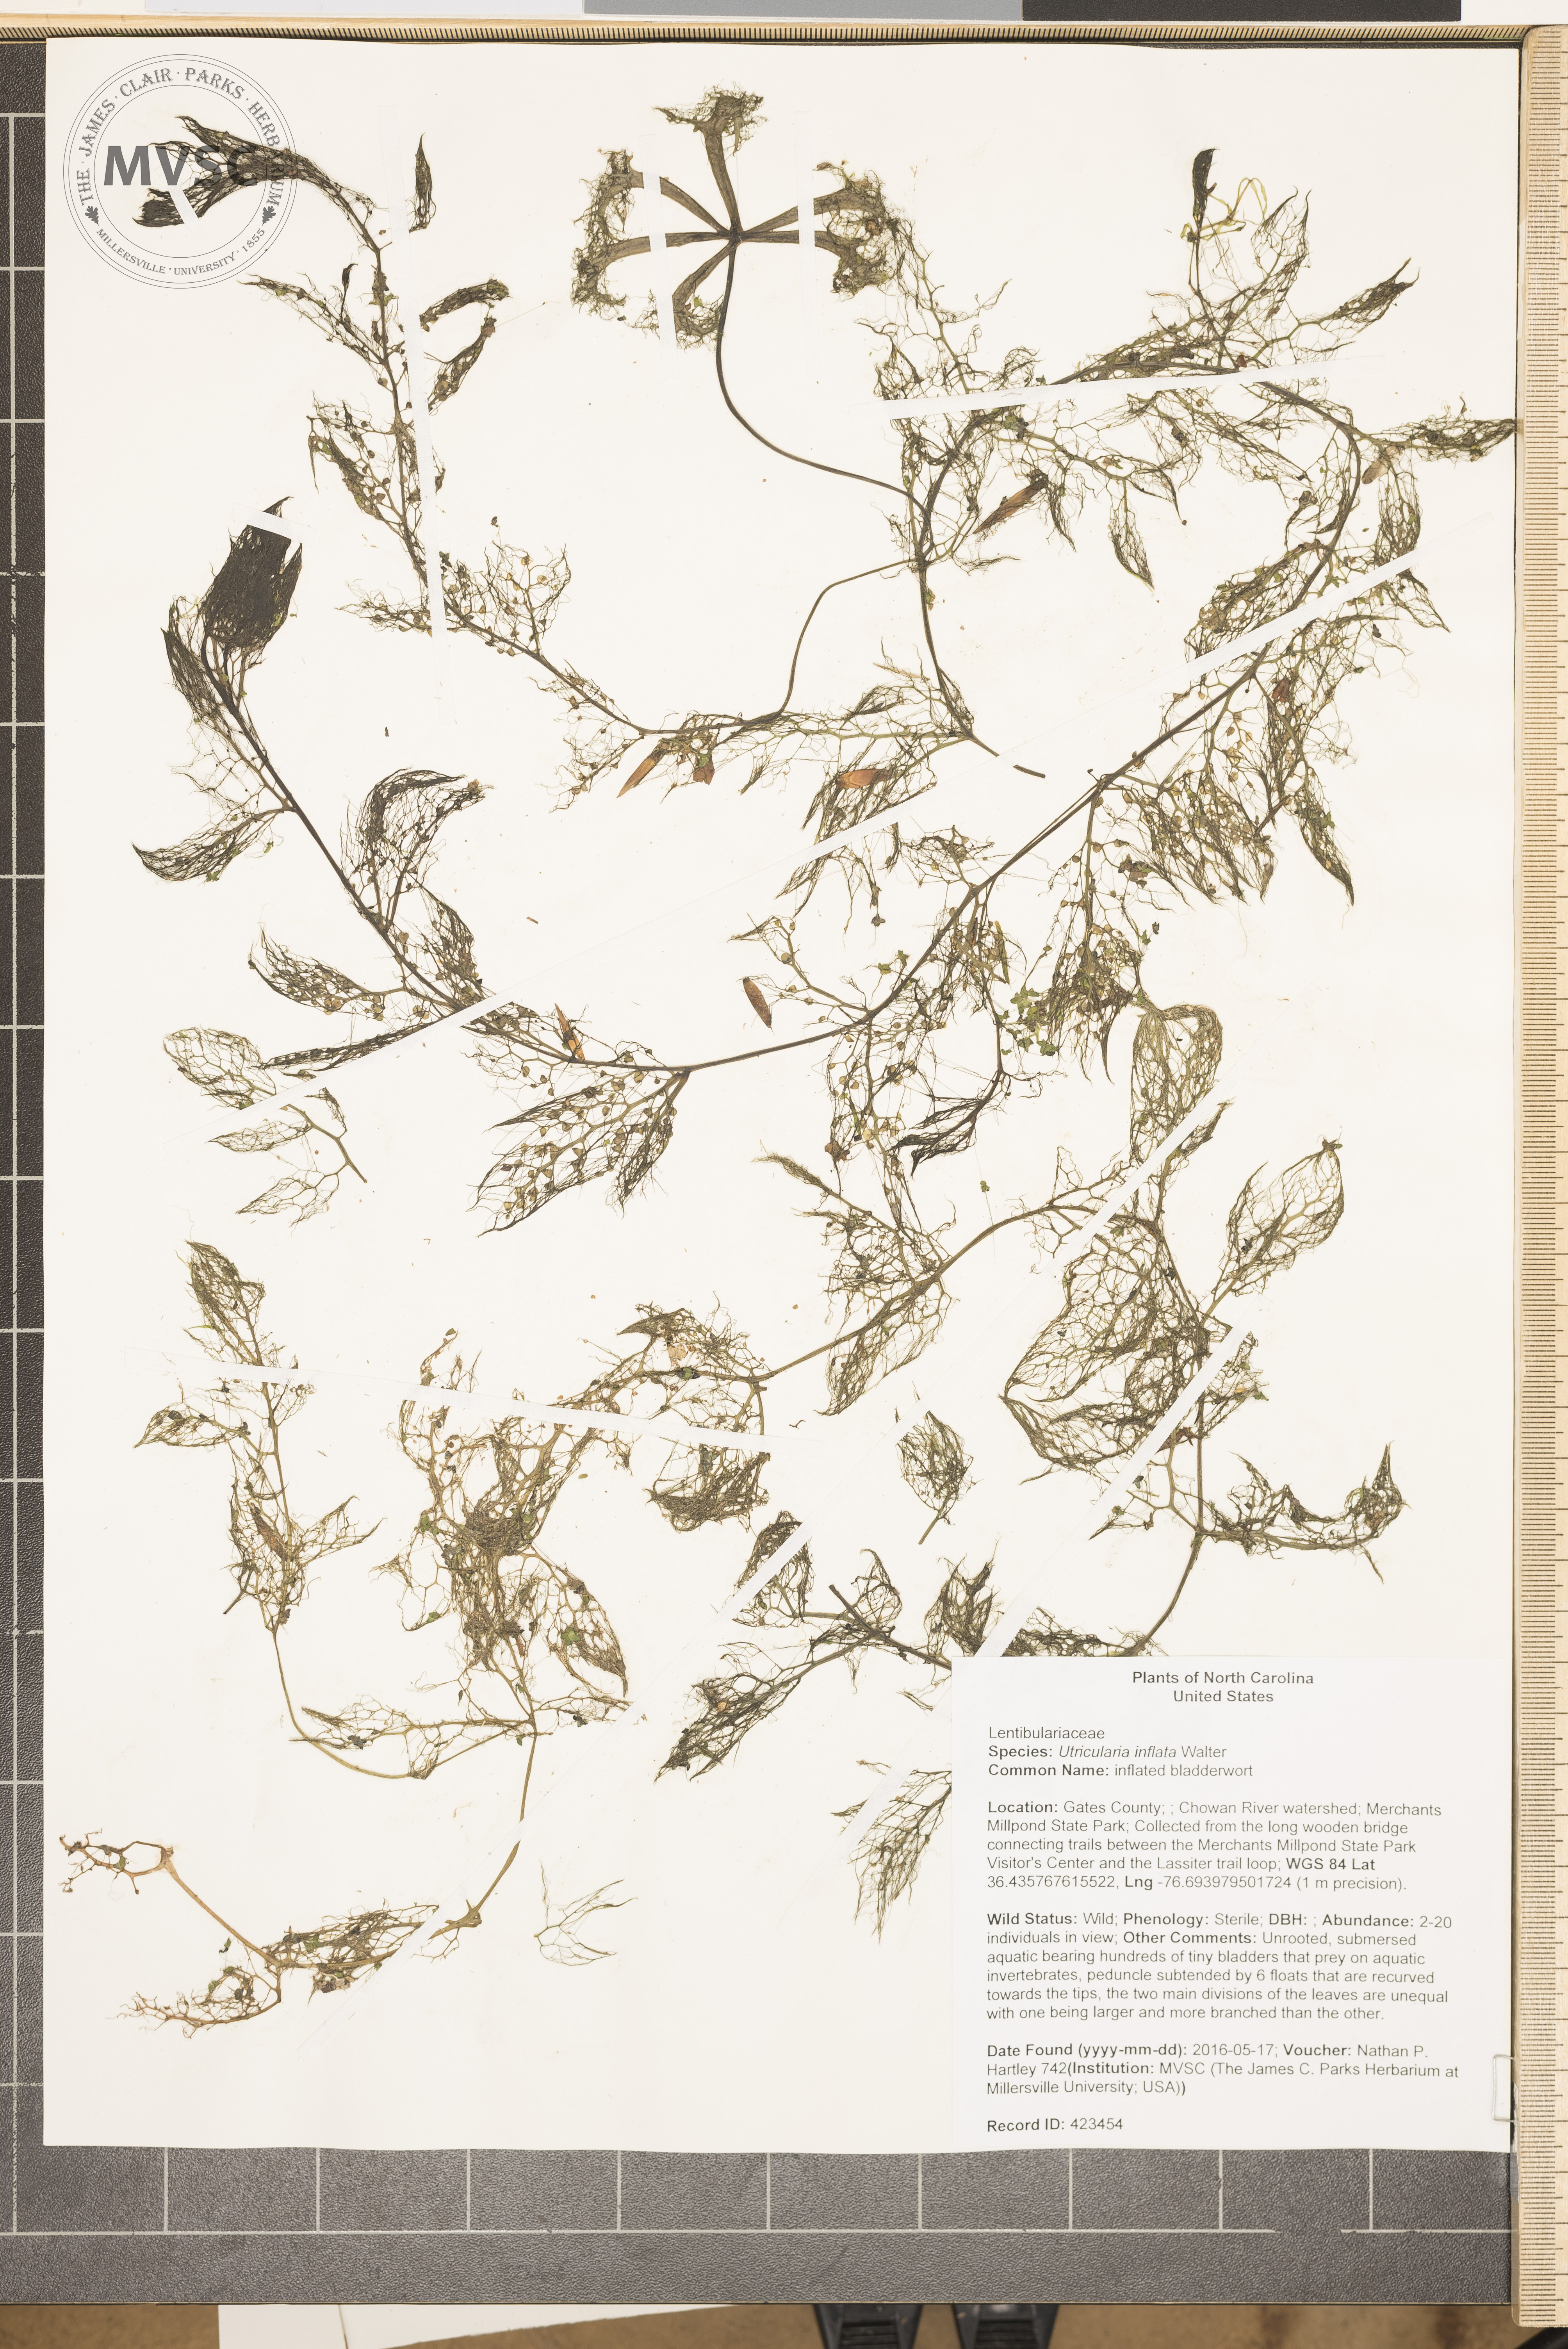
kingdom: Plantae
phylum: Tracheophyta
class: Magnoliopsida
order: Lamiales
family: Lentibulariaceae
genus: Utricularia
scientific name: Utricularia inflata
